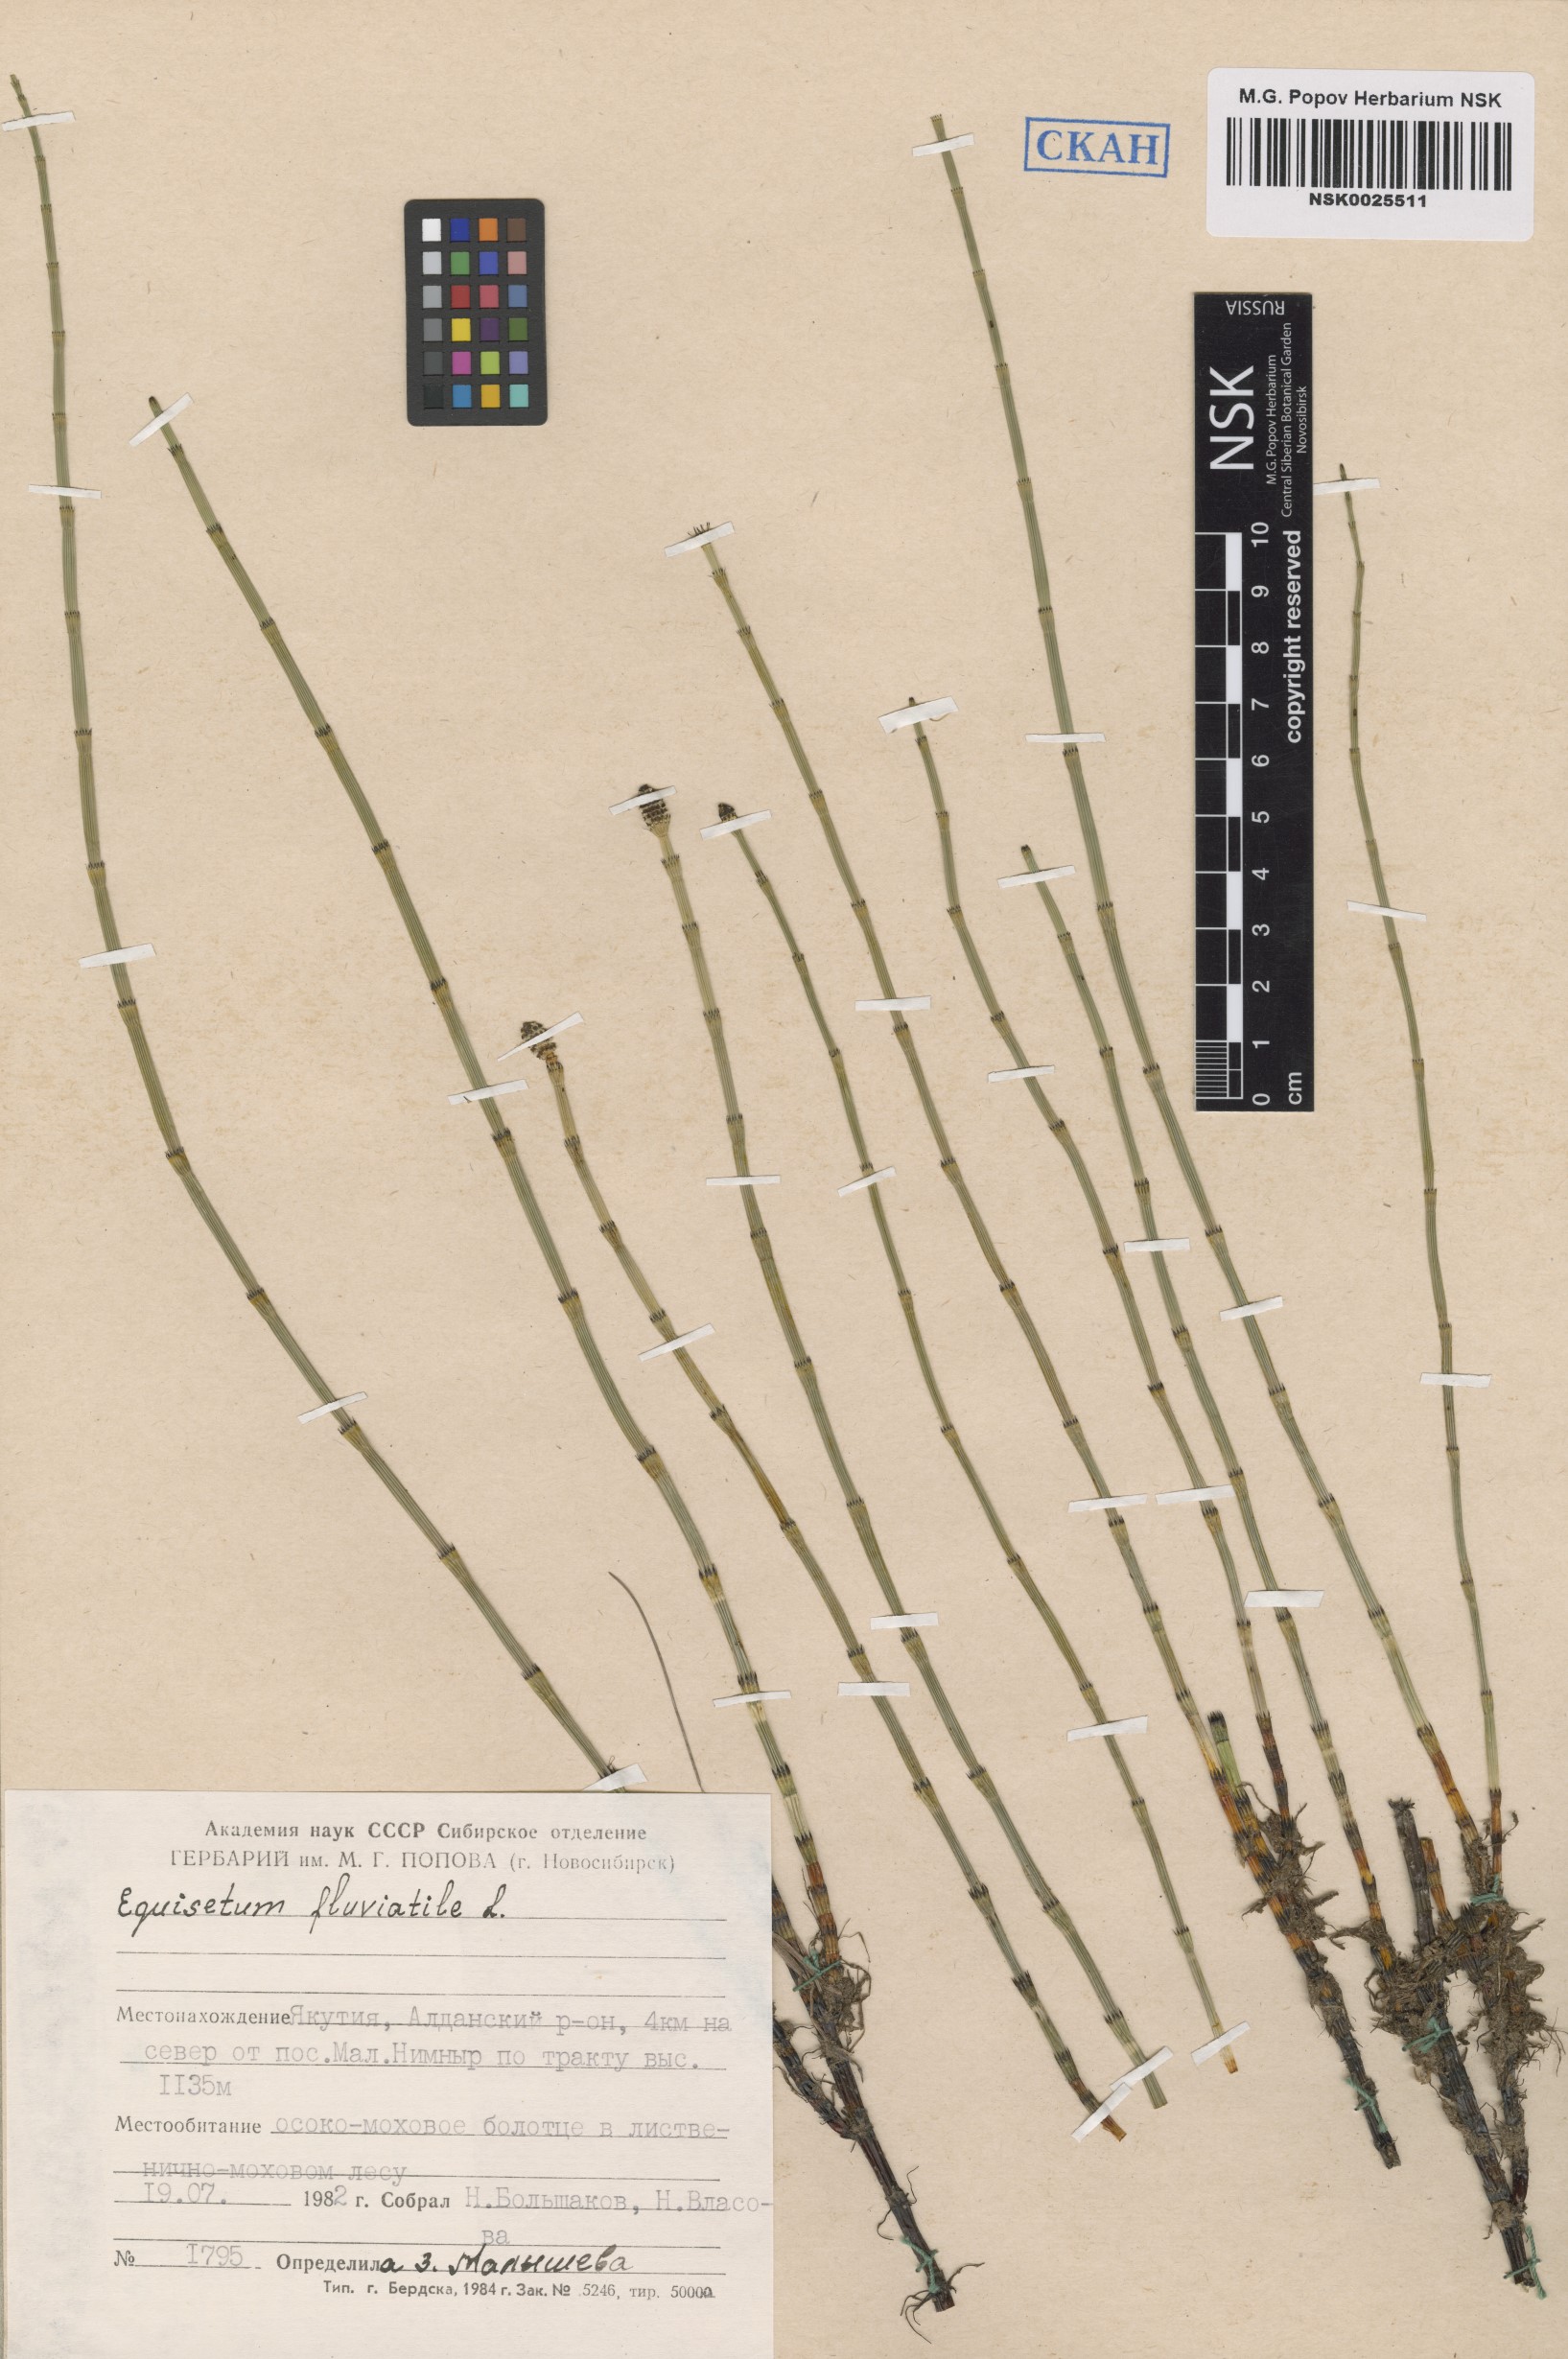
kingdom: Plantae
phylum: Tracheophyta
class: Polypodiopsida
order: Equisetales
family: Equisetaceae
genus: Equisetum
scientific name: Equisetum fluviatile
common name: Water horsetail
